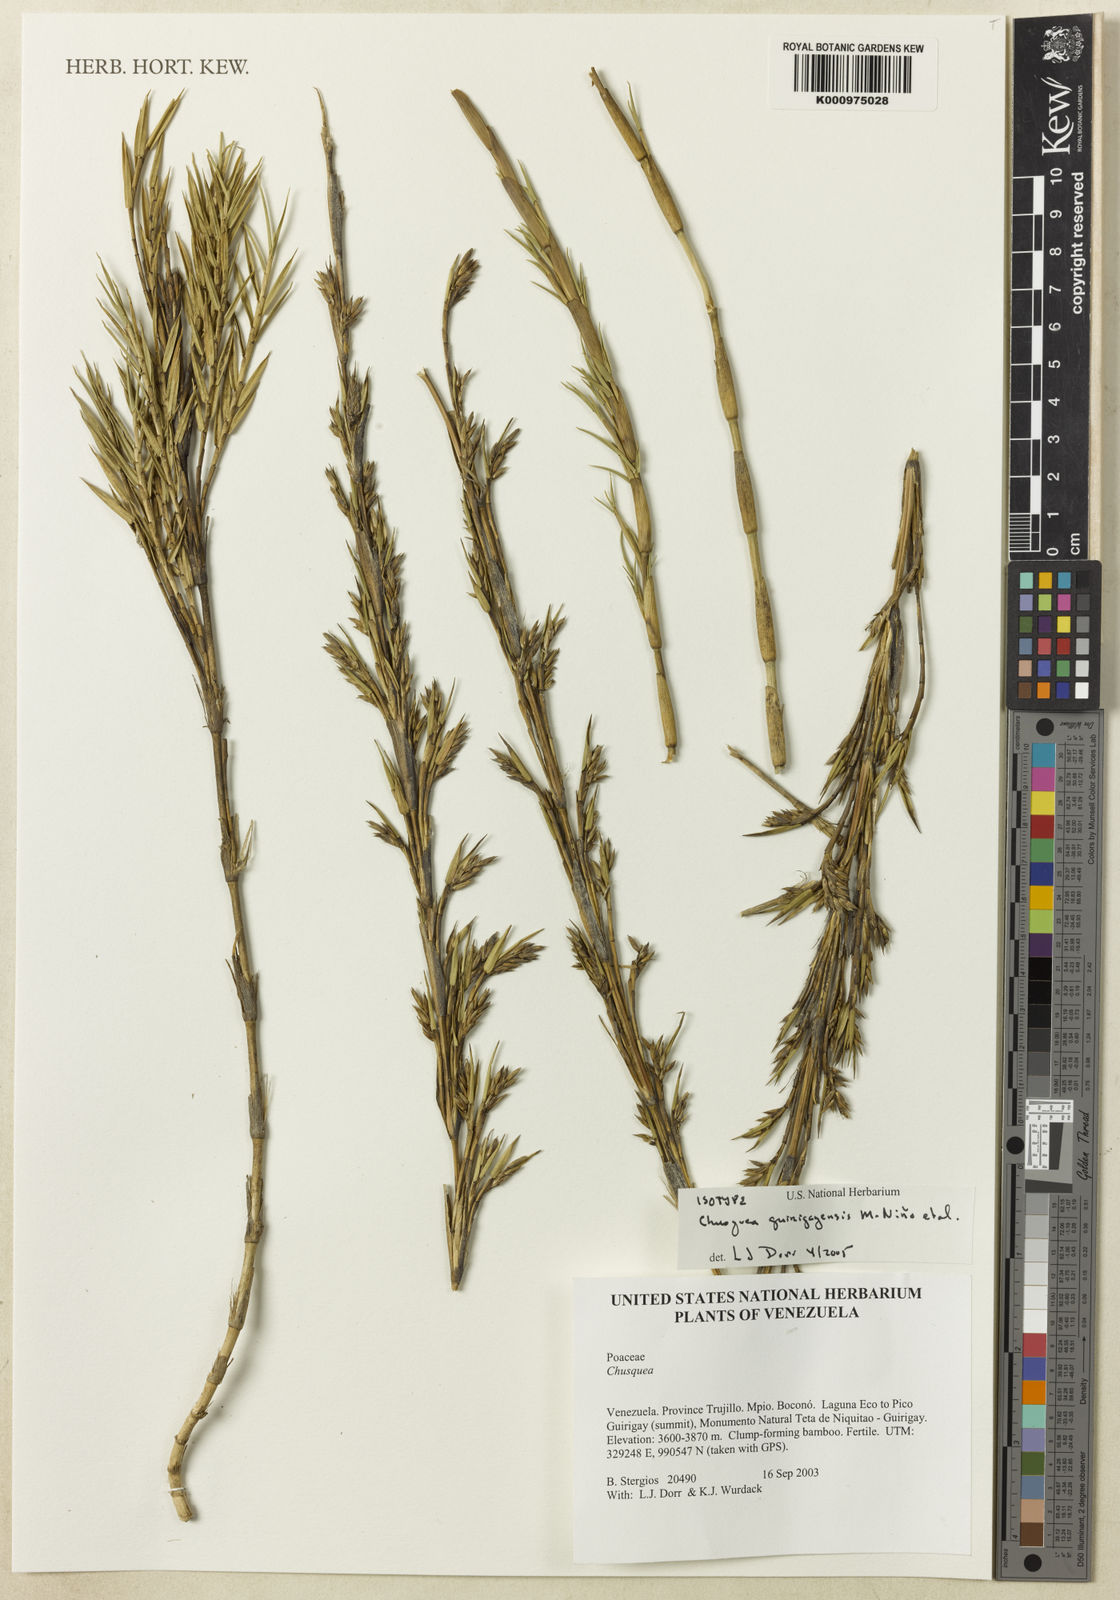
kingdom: Plantae
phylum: Tracheophyta
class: Liliopsida
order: Poales
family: Poaceae
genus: Chusquea
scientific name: Chusquea
